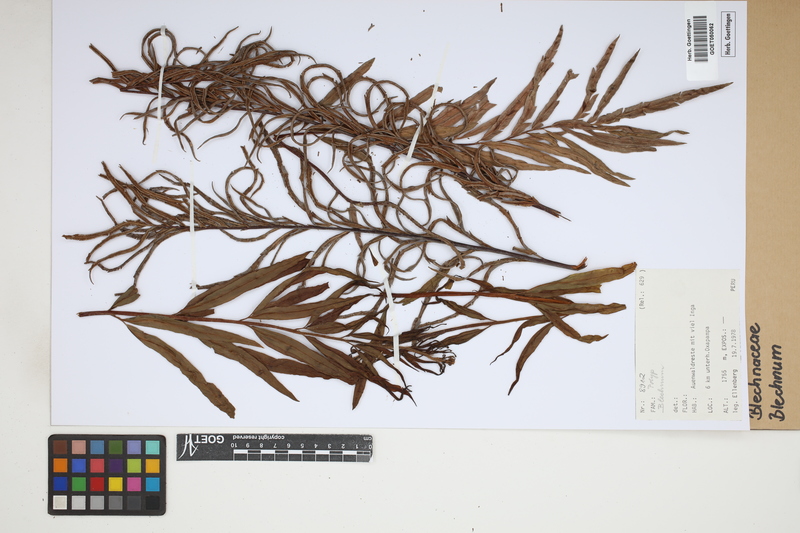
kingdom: Plantae
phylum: Tracheophyta
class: Polypodiopsida
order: Polypodiales
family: Blechnaceae
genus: Blechnum
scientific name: Blechnum
